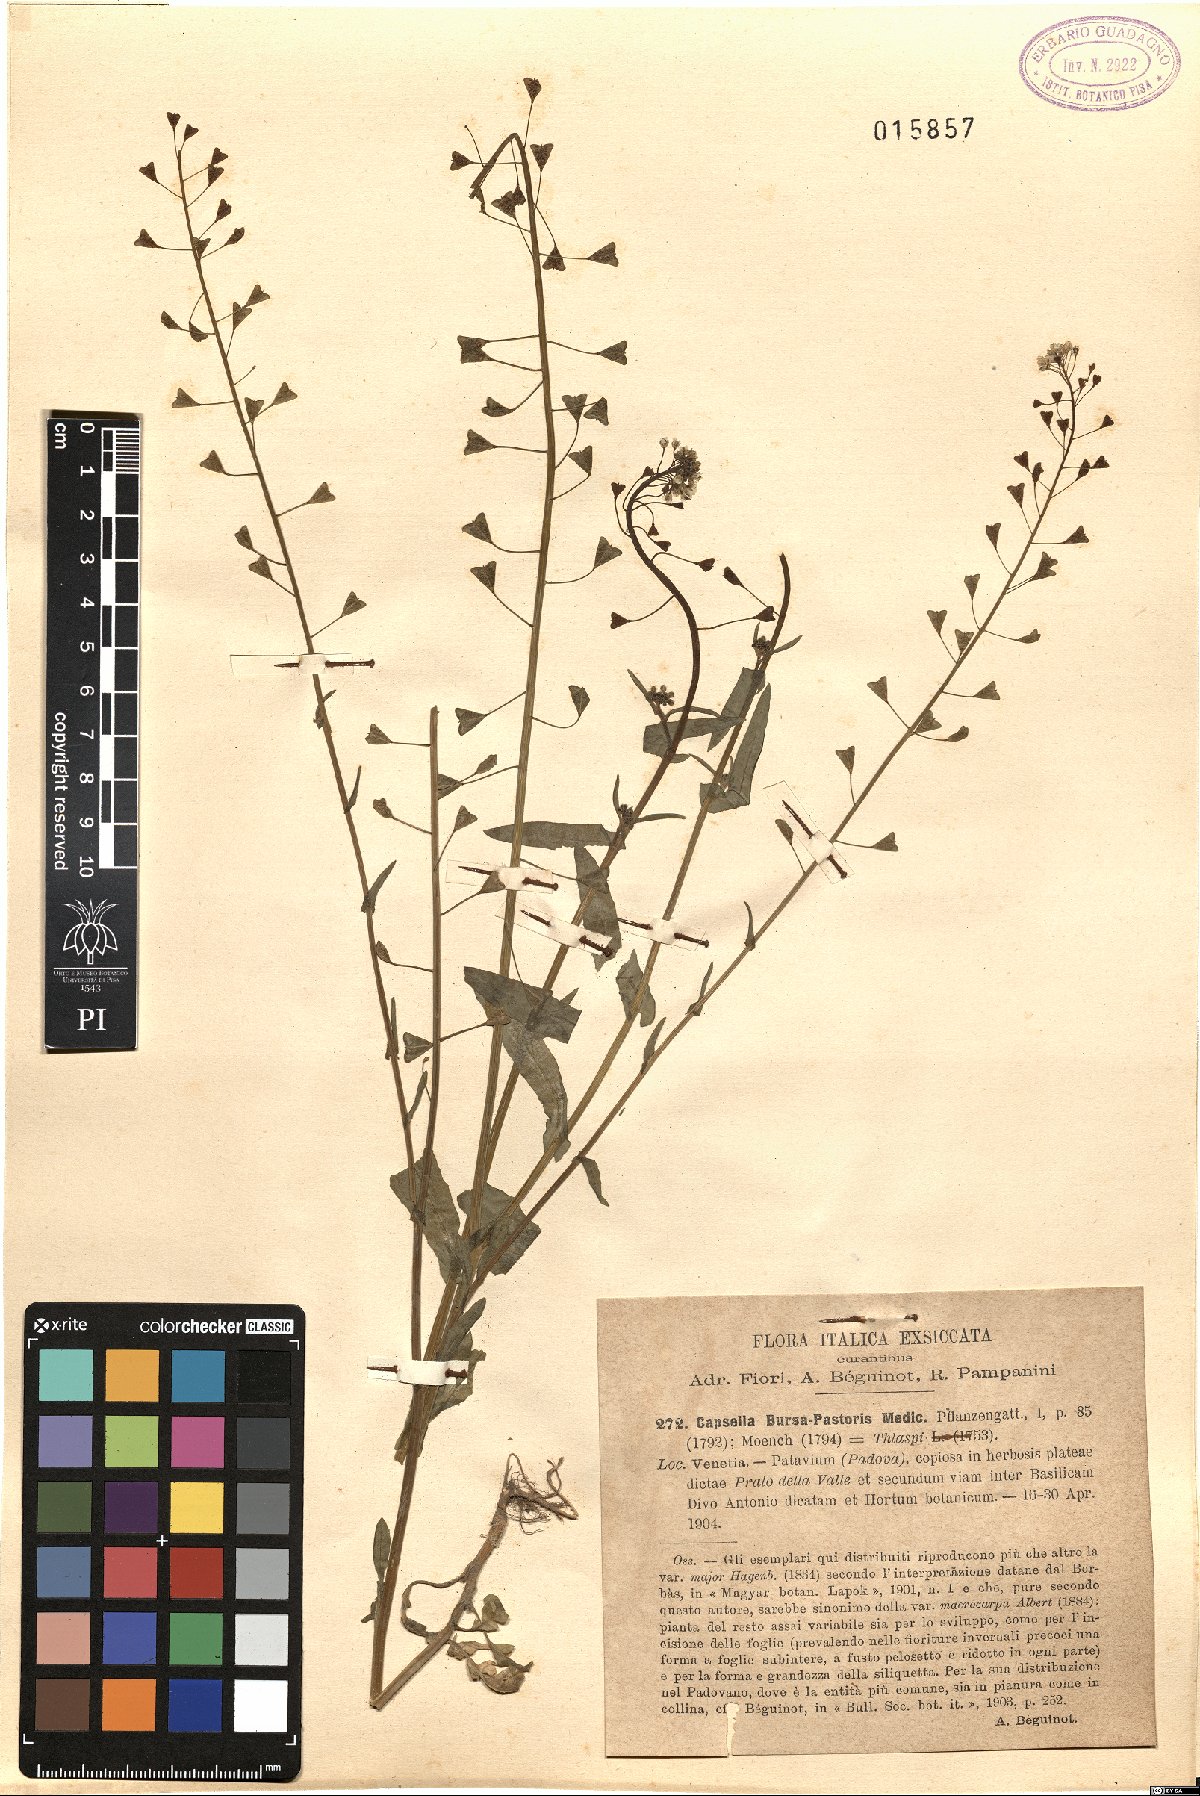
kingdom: Plantae
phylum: Tracheophyta
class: Magnoliopsida
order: Brassicales
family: Brassicaceae
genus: Capsella
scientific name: Capsella bursa-pastoris
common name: Shepherd's purse
